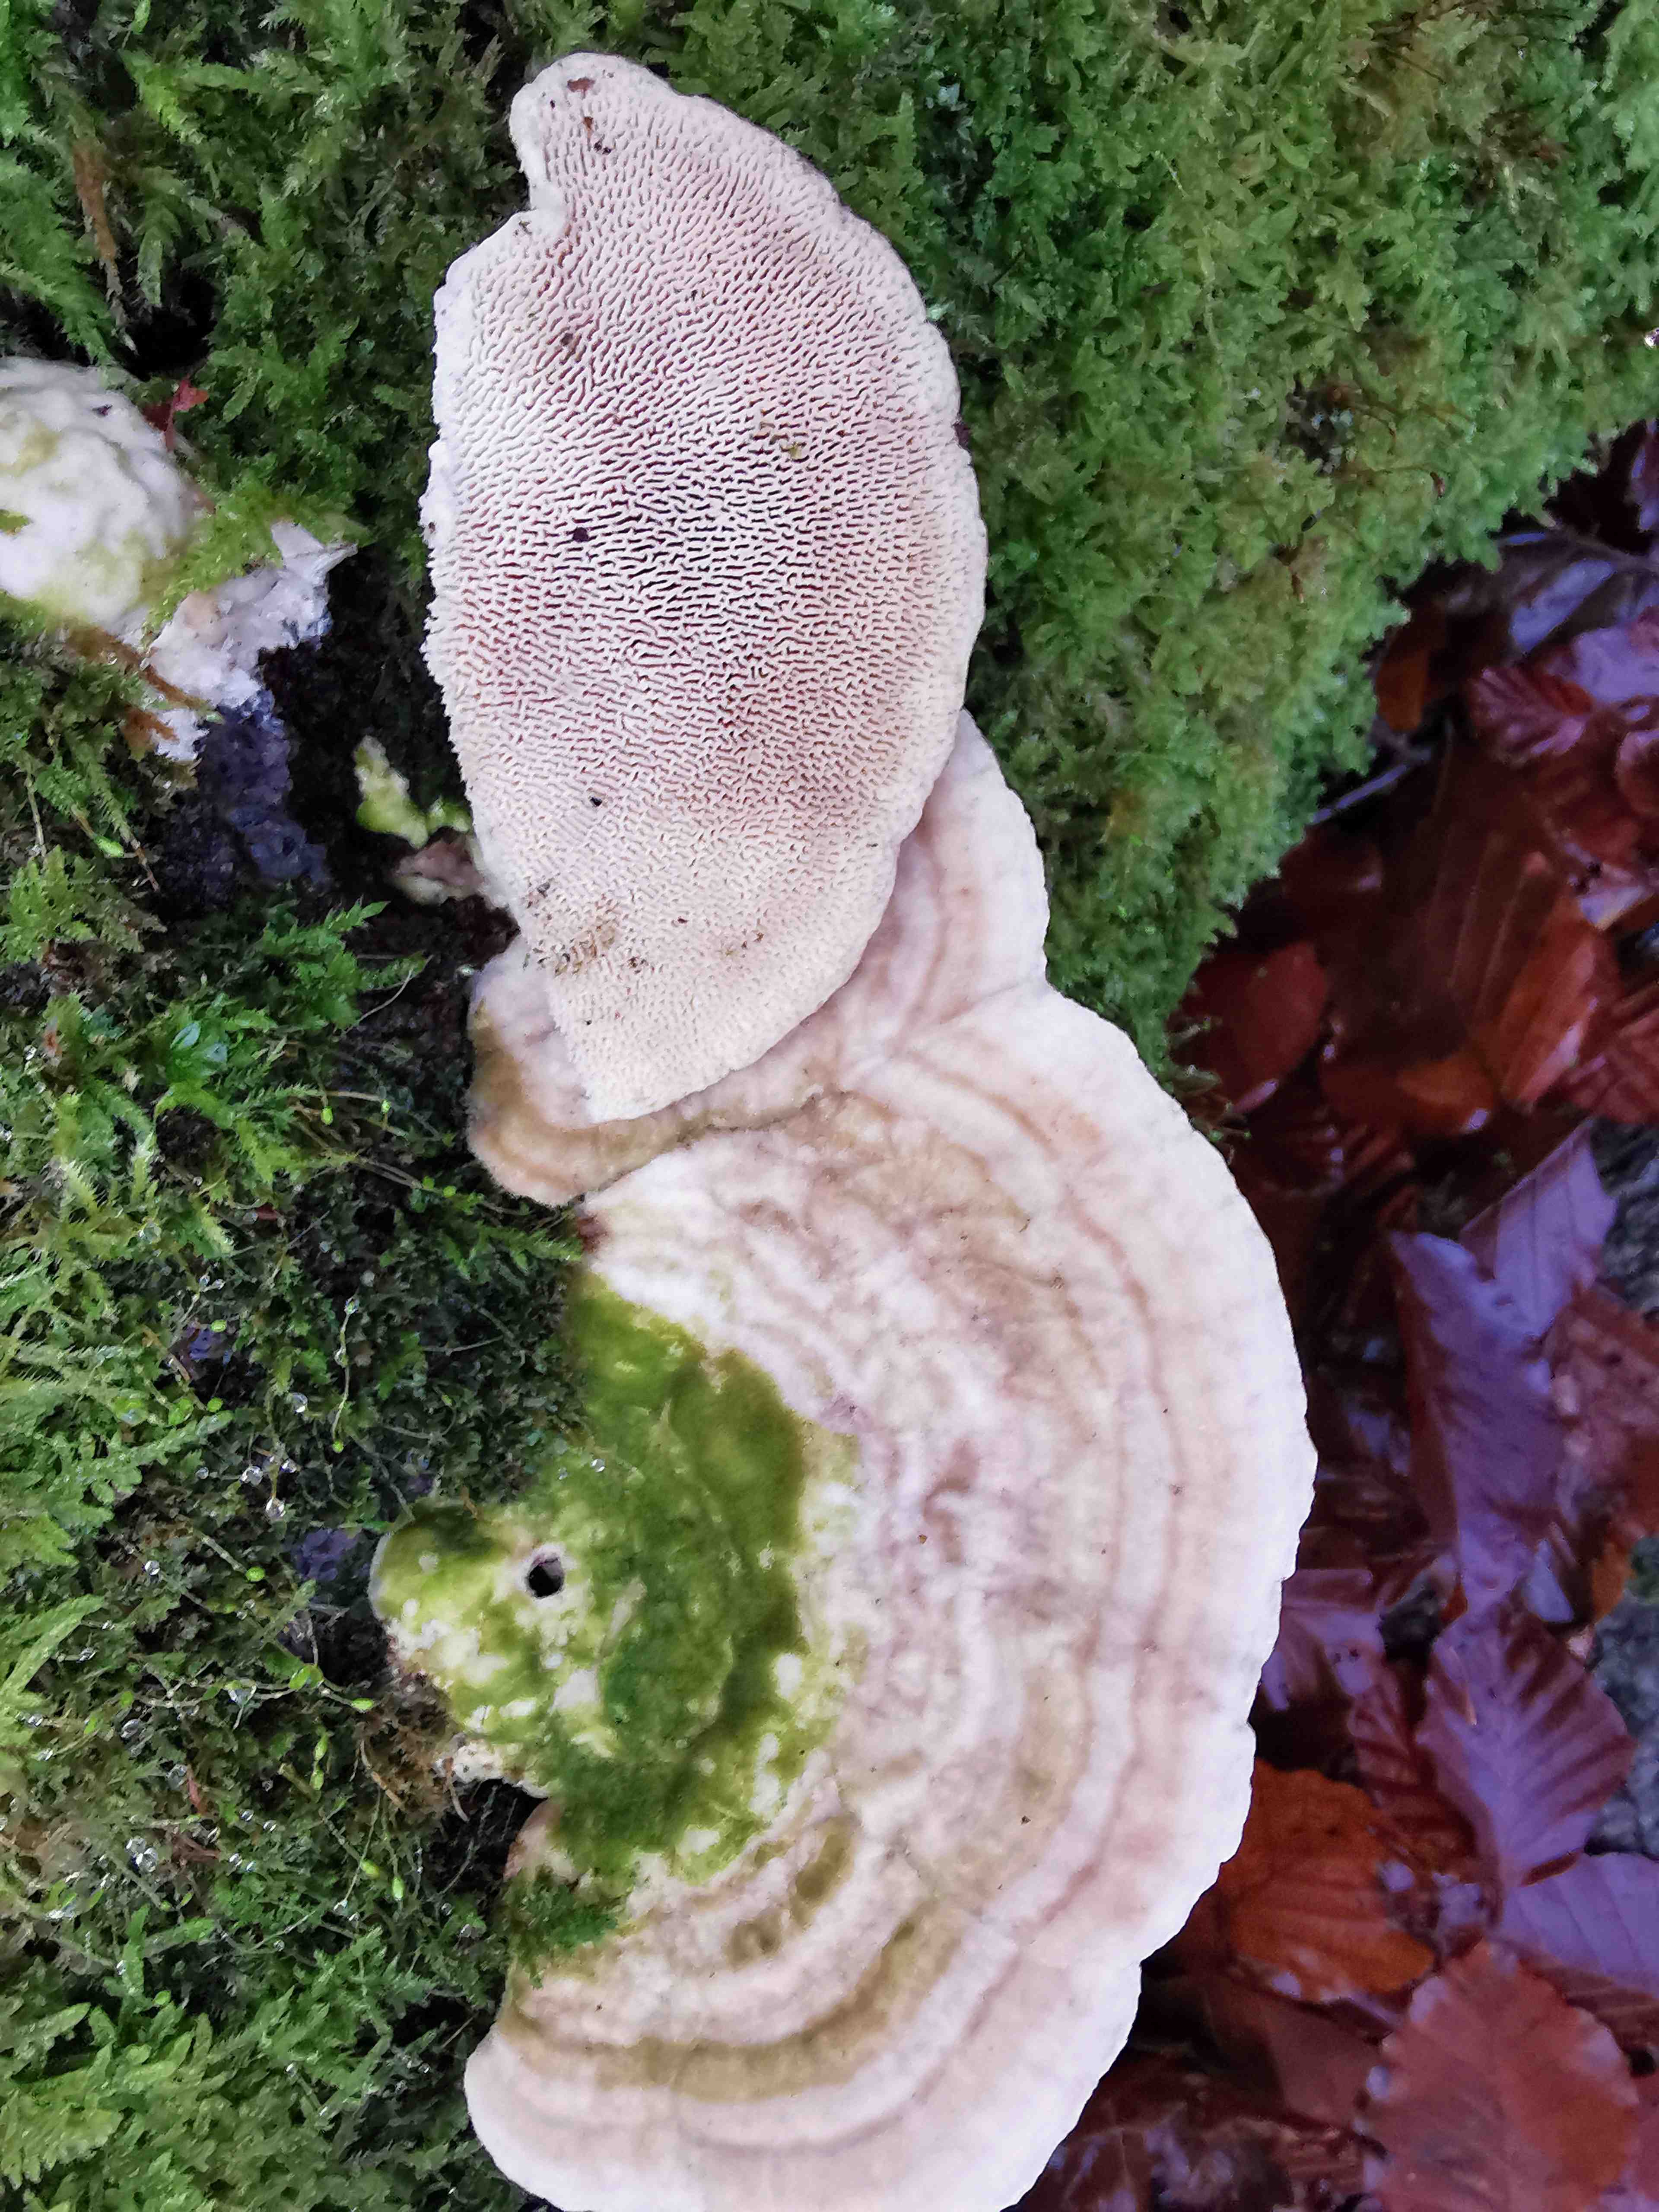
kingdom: Fungi
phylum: Basidiomycota
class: Agaricomycetes
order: Polyporales
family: Polyporaceae
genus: Trametes
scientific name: Trametes gibbosa
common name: puklet læderporesvamp
